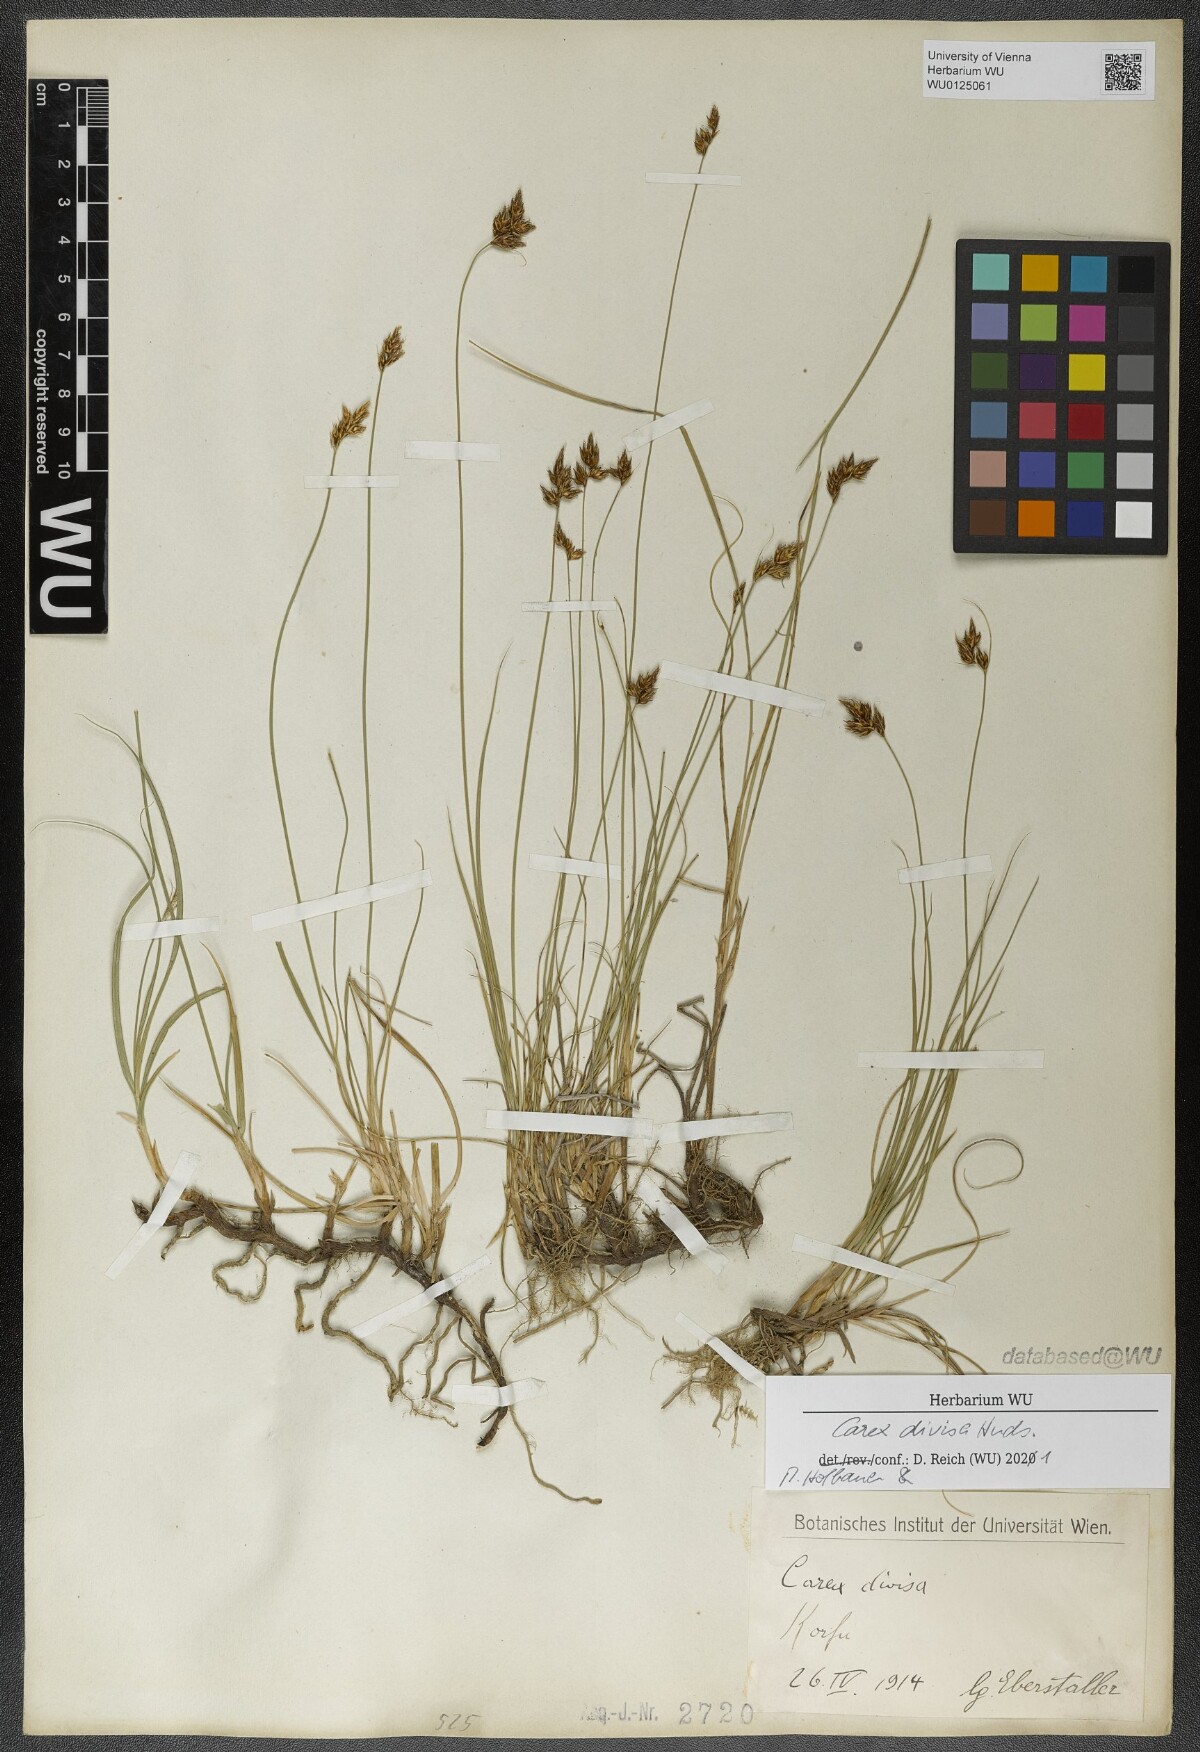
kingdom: Plantae
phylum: Tracheophyta
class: Liliopsida
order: Poales
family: Cyperaceae
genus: Carex
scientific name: Carex divisa
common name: Divided sedge
